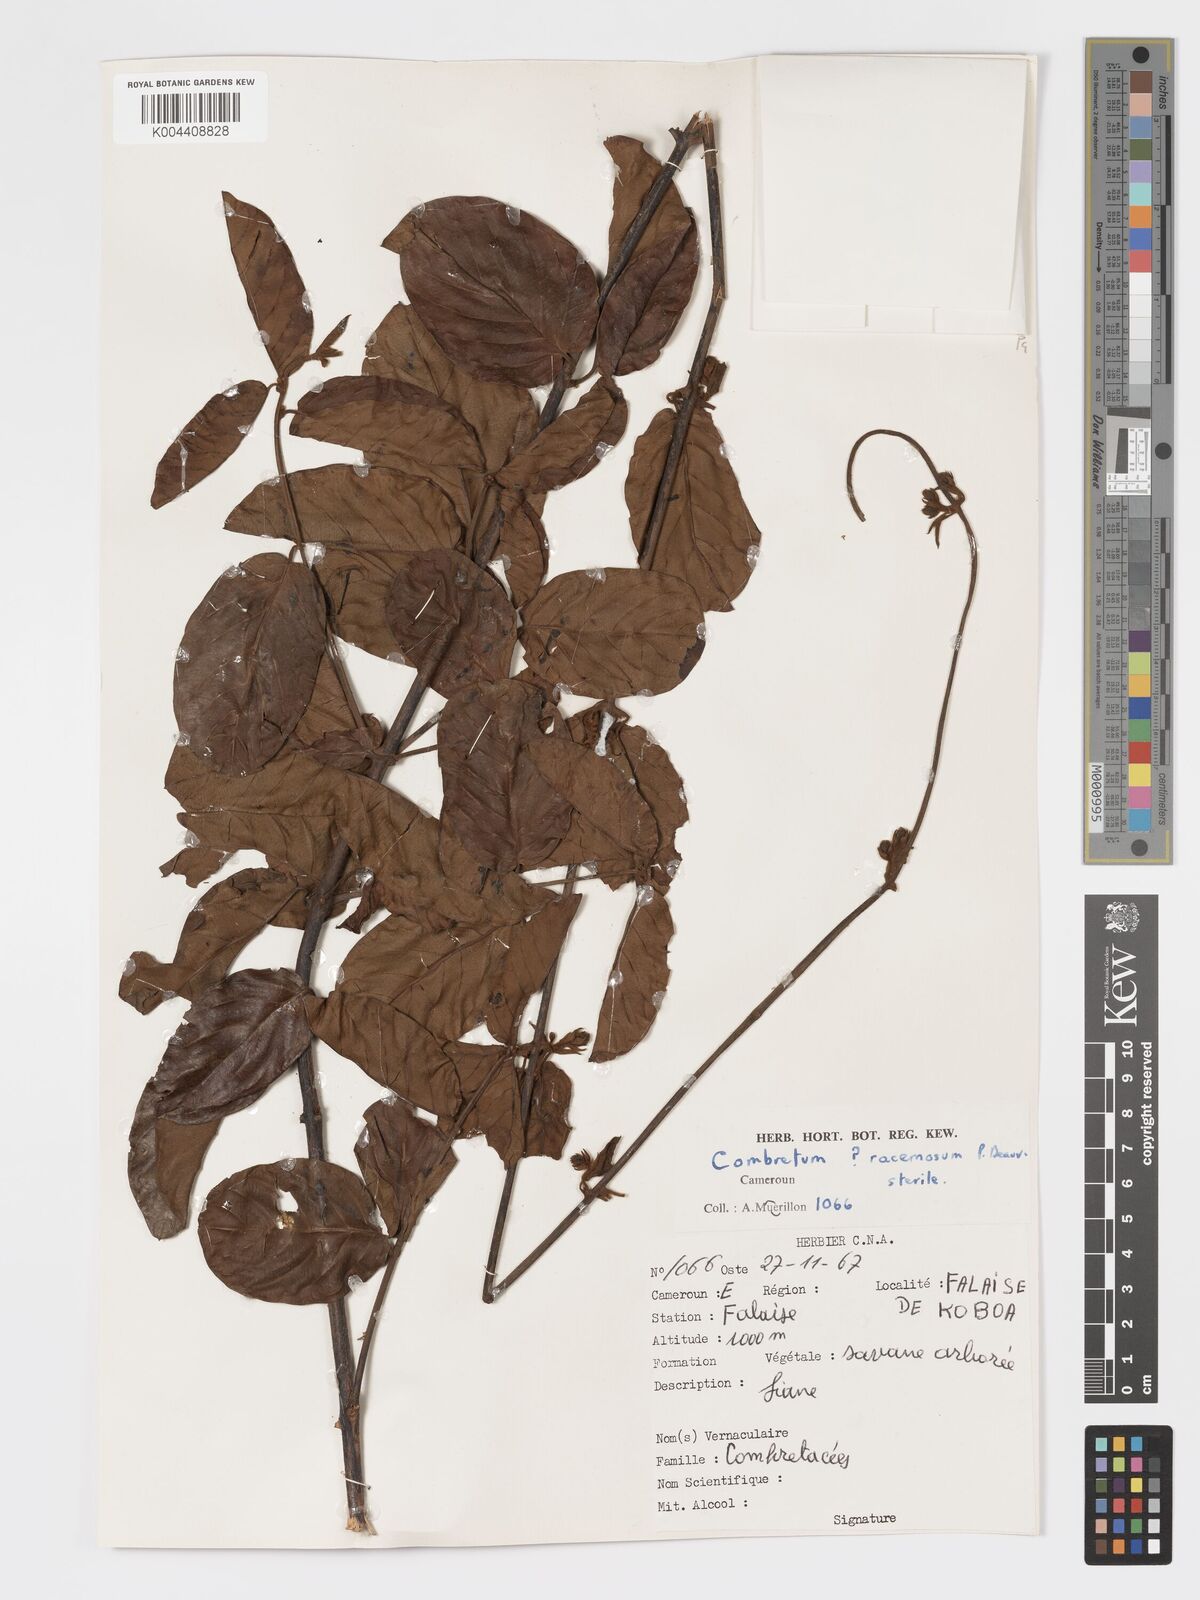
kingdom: Plantae
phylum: Tracheophyta
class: Magnoliopsida
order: Myrtales
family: Combretaceae
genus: Combretum
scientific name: Combretum racemosum
